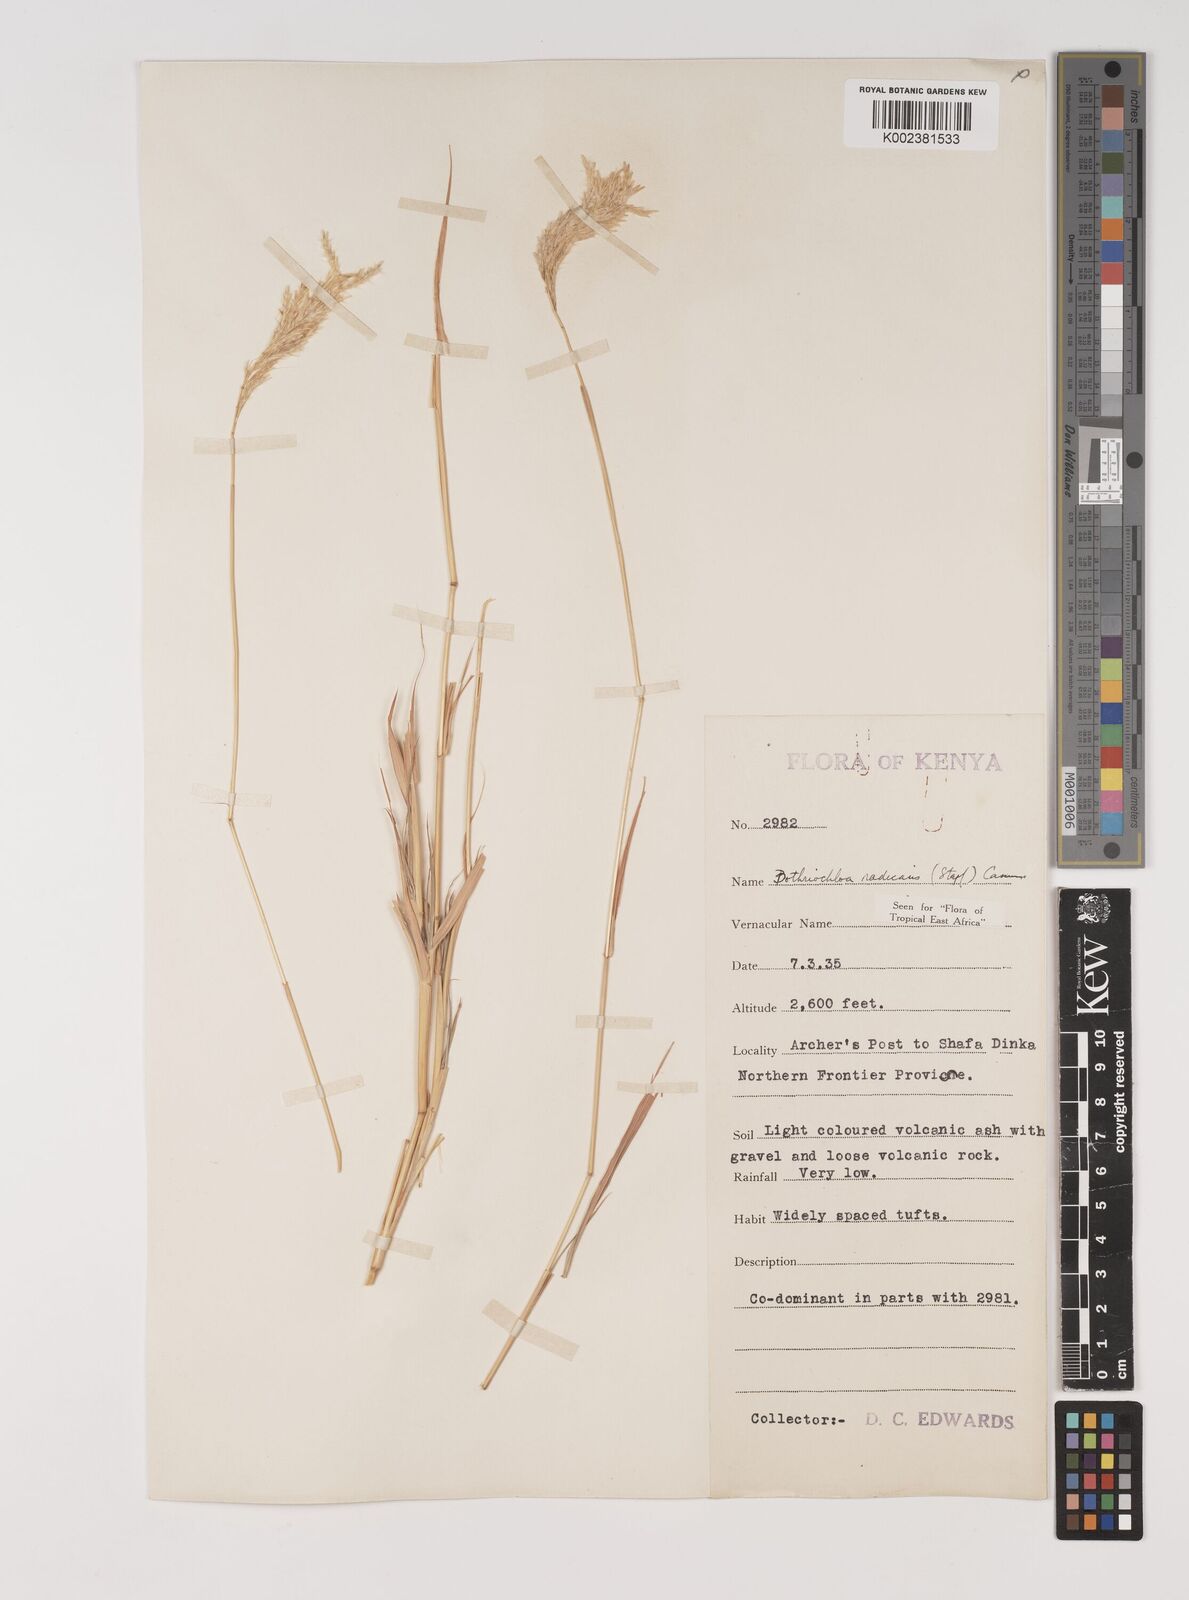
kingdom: Plantae
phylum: Tracheophyta
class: Liliopsida
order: Poales
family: Poaceae
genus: Bothriochloa
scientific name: Bothriochloa radicans
